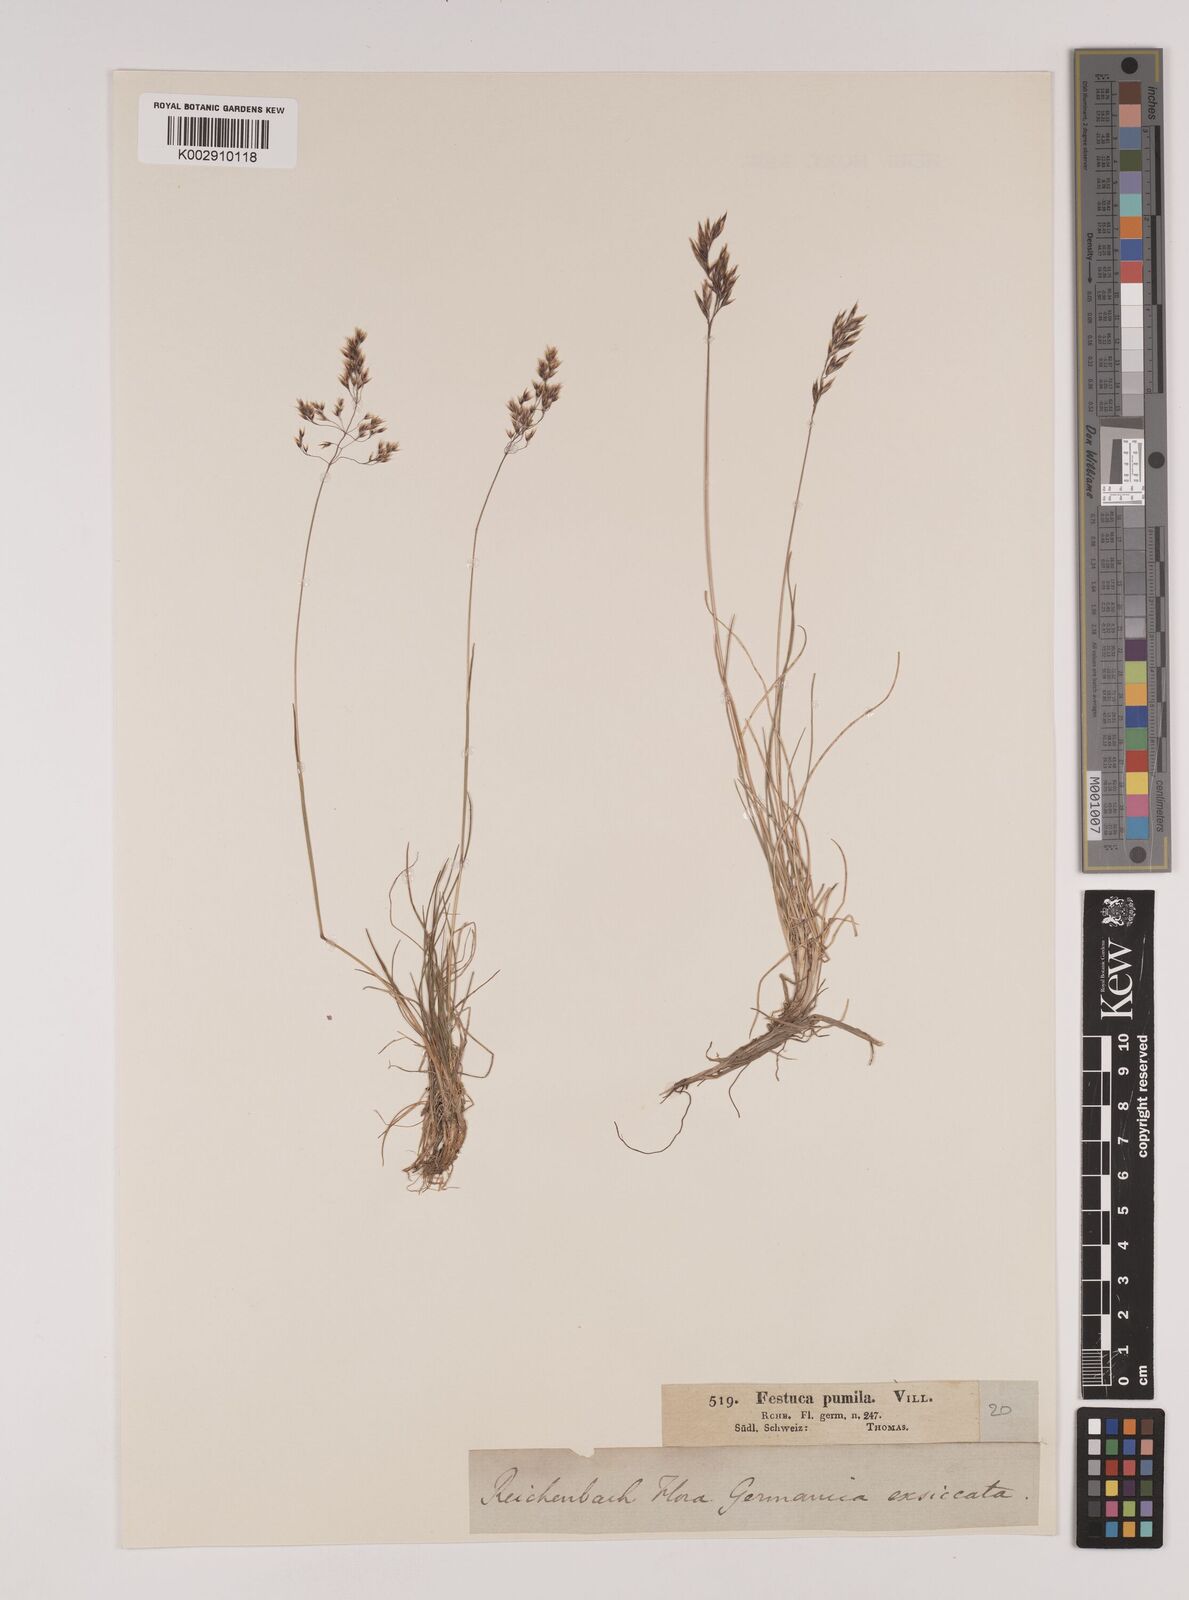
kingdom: Plantae
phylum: Tracheophyta
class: Liliopsida
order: Poales
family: Poaceae
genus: Festuca
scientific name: Festuca
